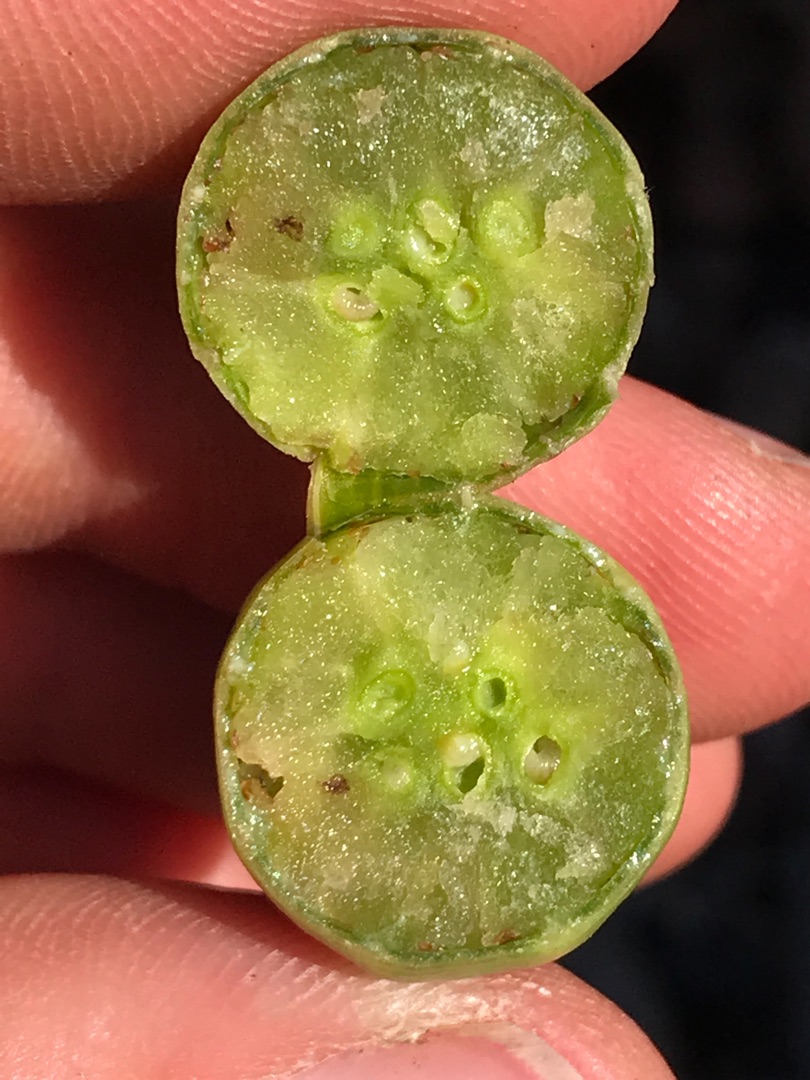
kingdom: Animalia
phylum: Arthropoda
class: Insecta
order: Hymenoptera
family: Cynipidae
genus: Aylax
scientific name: Aylax papaveris
